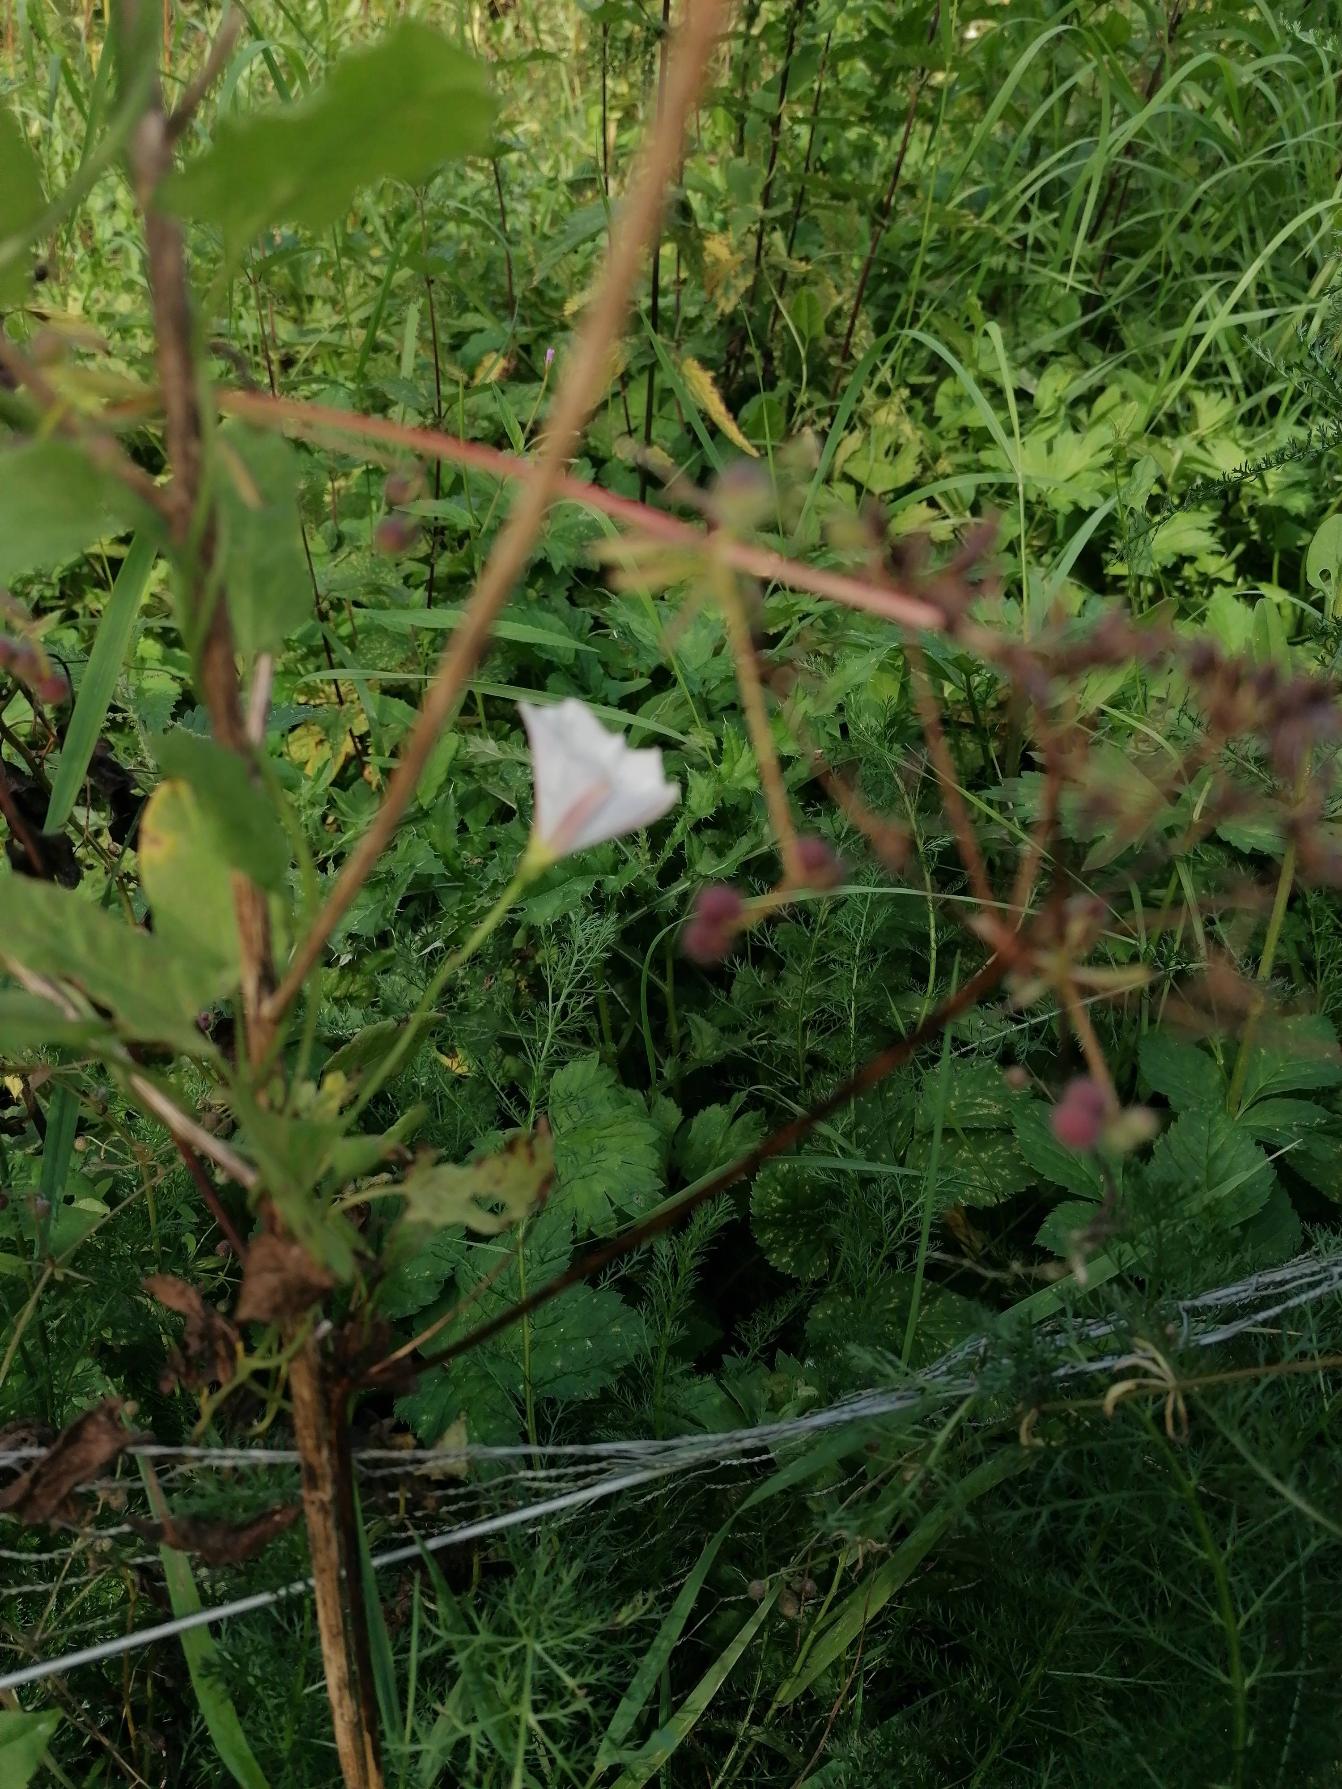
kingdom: Plantae
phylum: Tracheophyta
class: Magnoliopsida
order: Solanales
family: Convolvulaceae
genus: Convolvulus
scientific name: Convolvulus arvensis
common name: Ager-snerle
